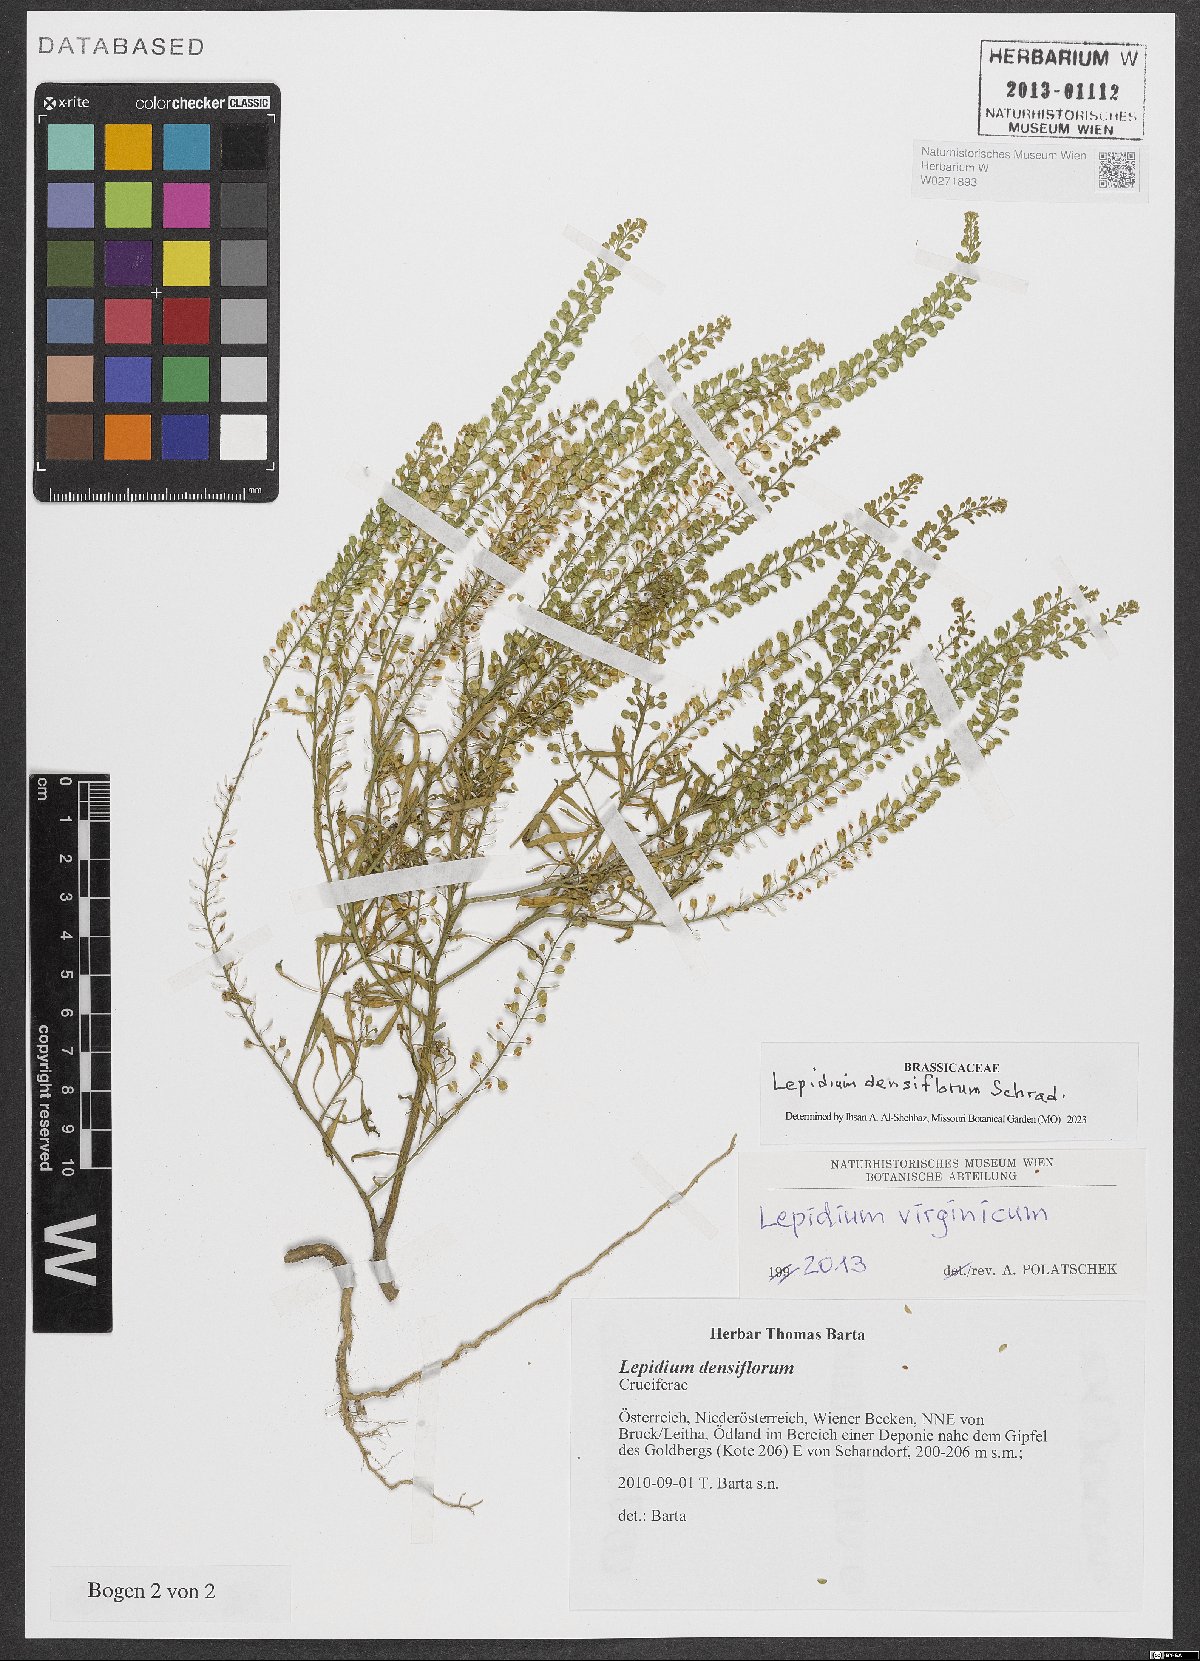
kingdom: Plantae
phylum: Tracheophyta
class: Magnoliopsida
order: Brassicales
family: Brassicaceae
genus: Lepidium
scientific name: Lepidium densiflorum
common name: Miner's pepperwort
